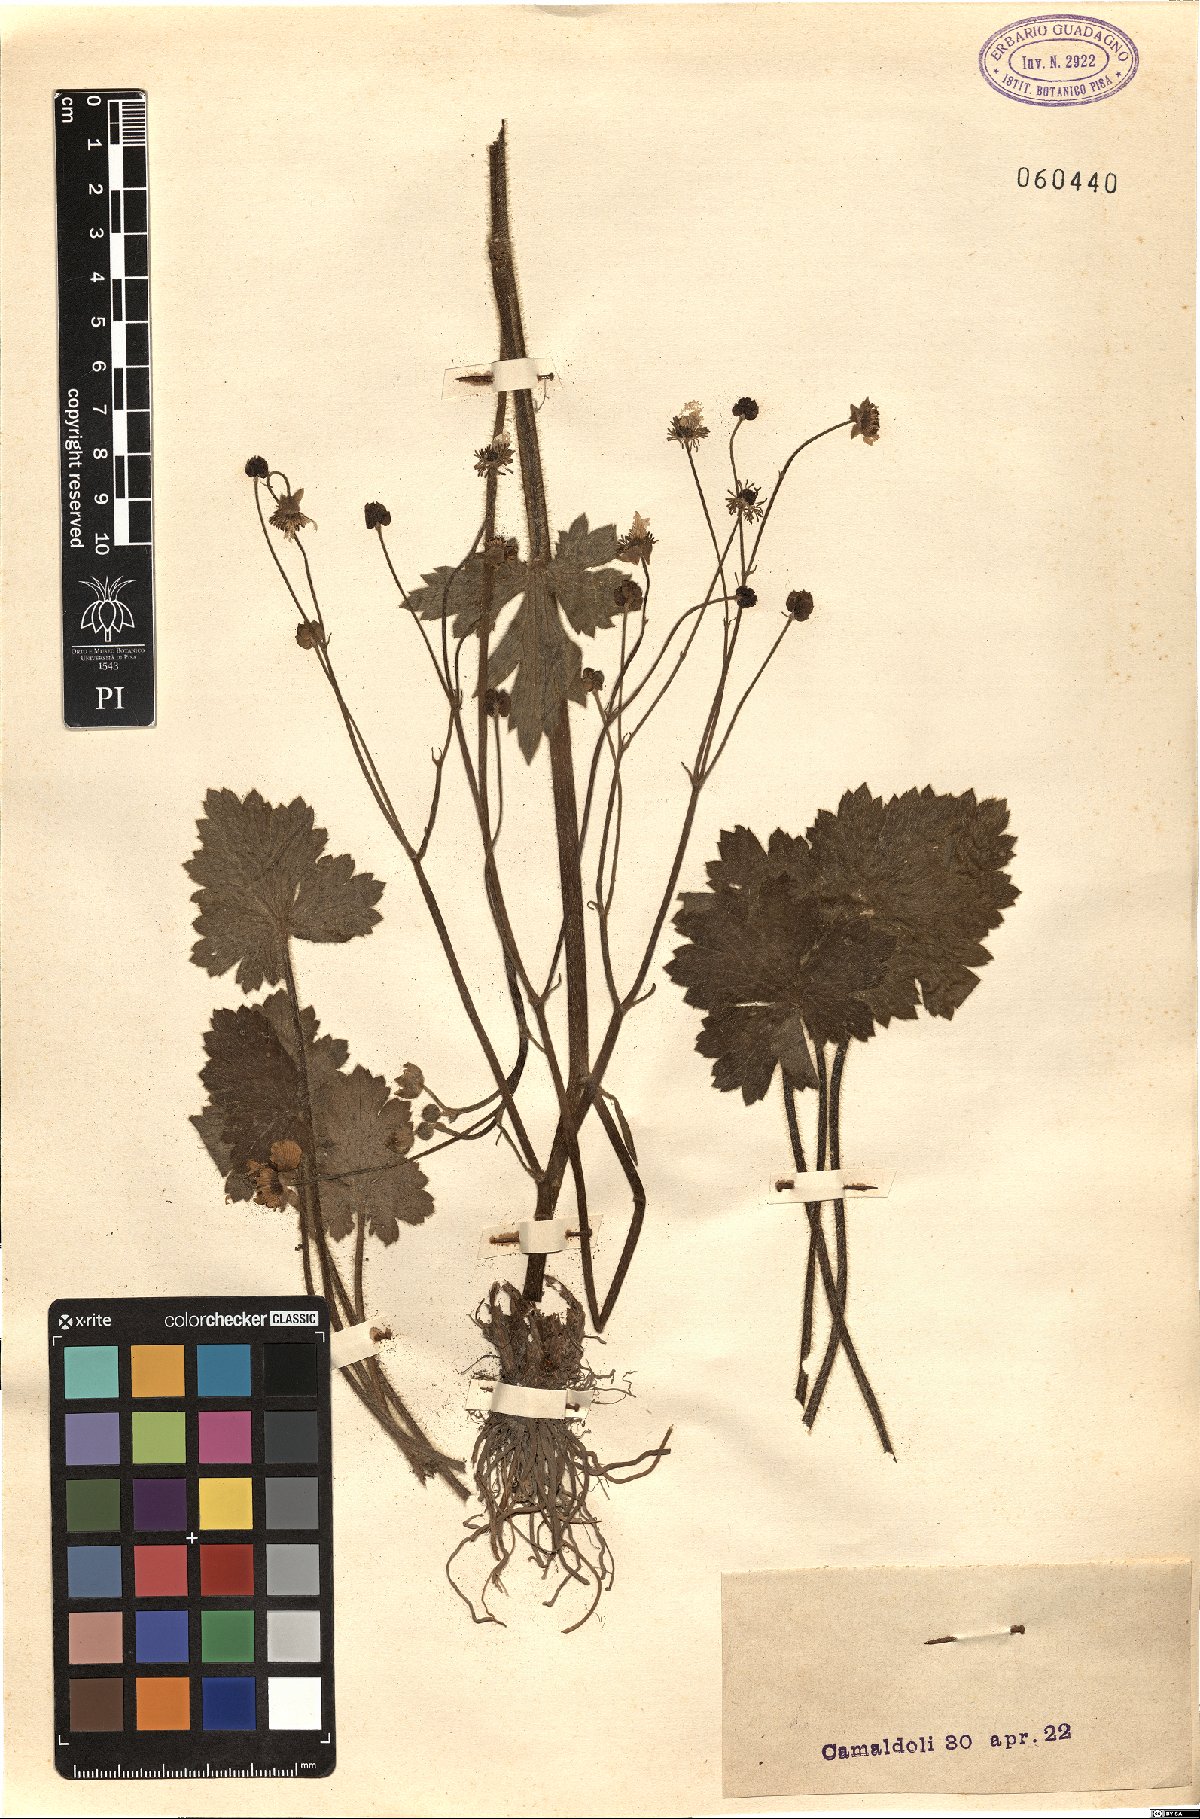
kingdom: Plantae
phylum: Tracheophyta
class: Magnoliopsida
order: Ranunculales
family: Ranunculaceae
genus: Ranunculus
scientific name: Ranunculus
